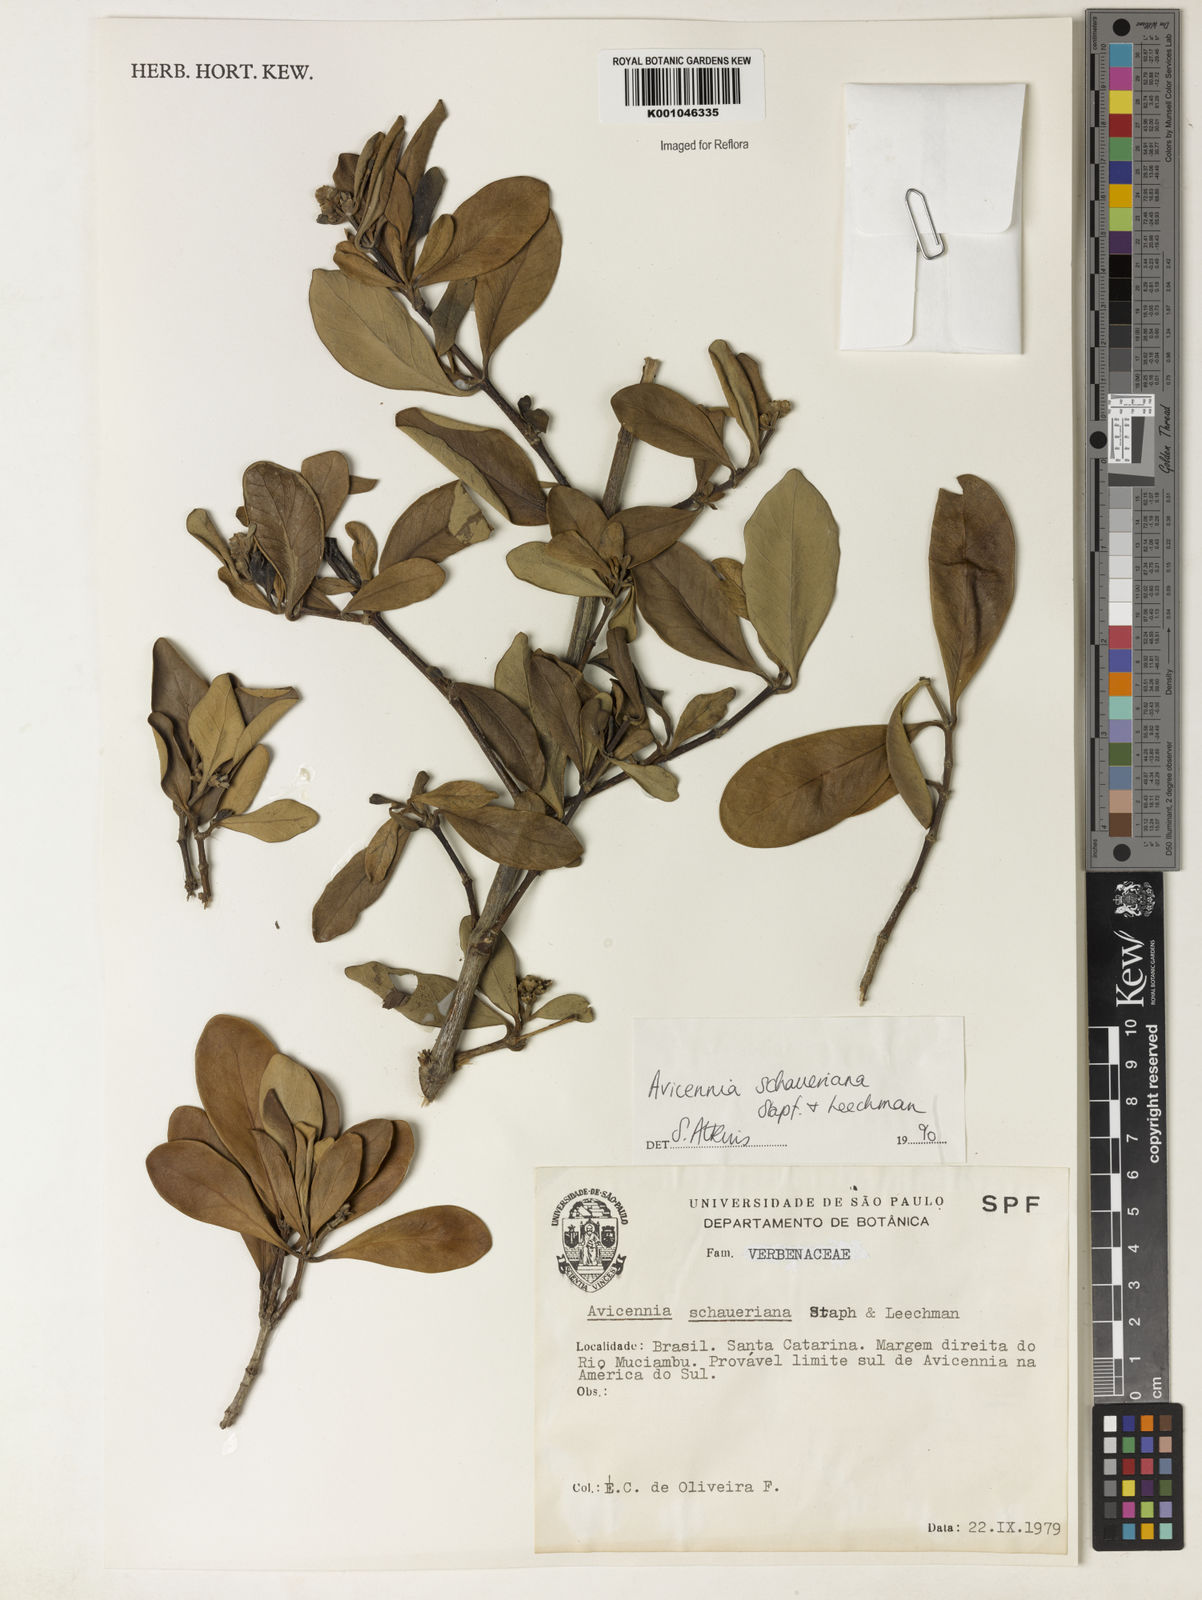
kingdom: Plantae
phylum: Tracheophyta
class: Magnoliopsida
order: Lamiales
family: Acanthaceae
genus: Avicennia
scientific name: Avicennia schaueriana
